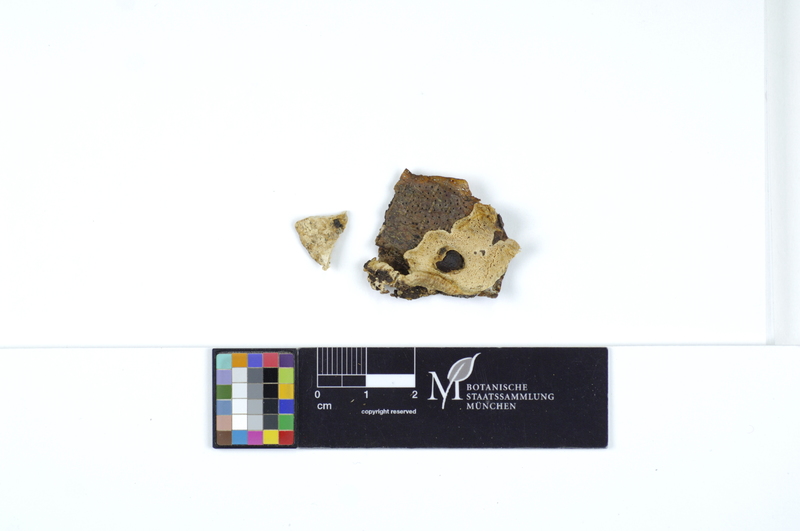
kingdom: Fungi
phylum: Basidiomycota
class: Agaricomycetes
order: Polyporales
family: Steccherinaceae
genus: Antrodiella
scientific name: Antrodiella onychoides
